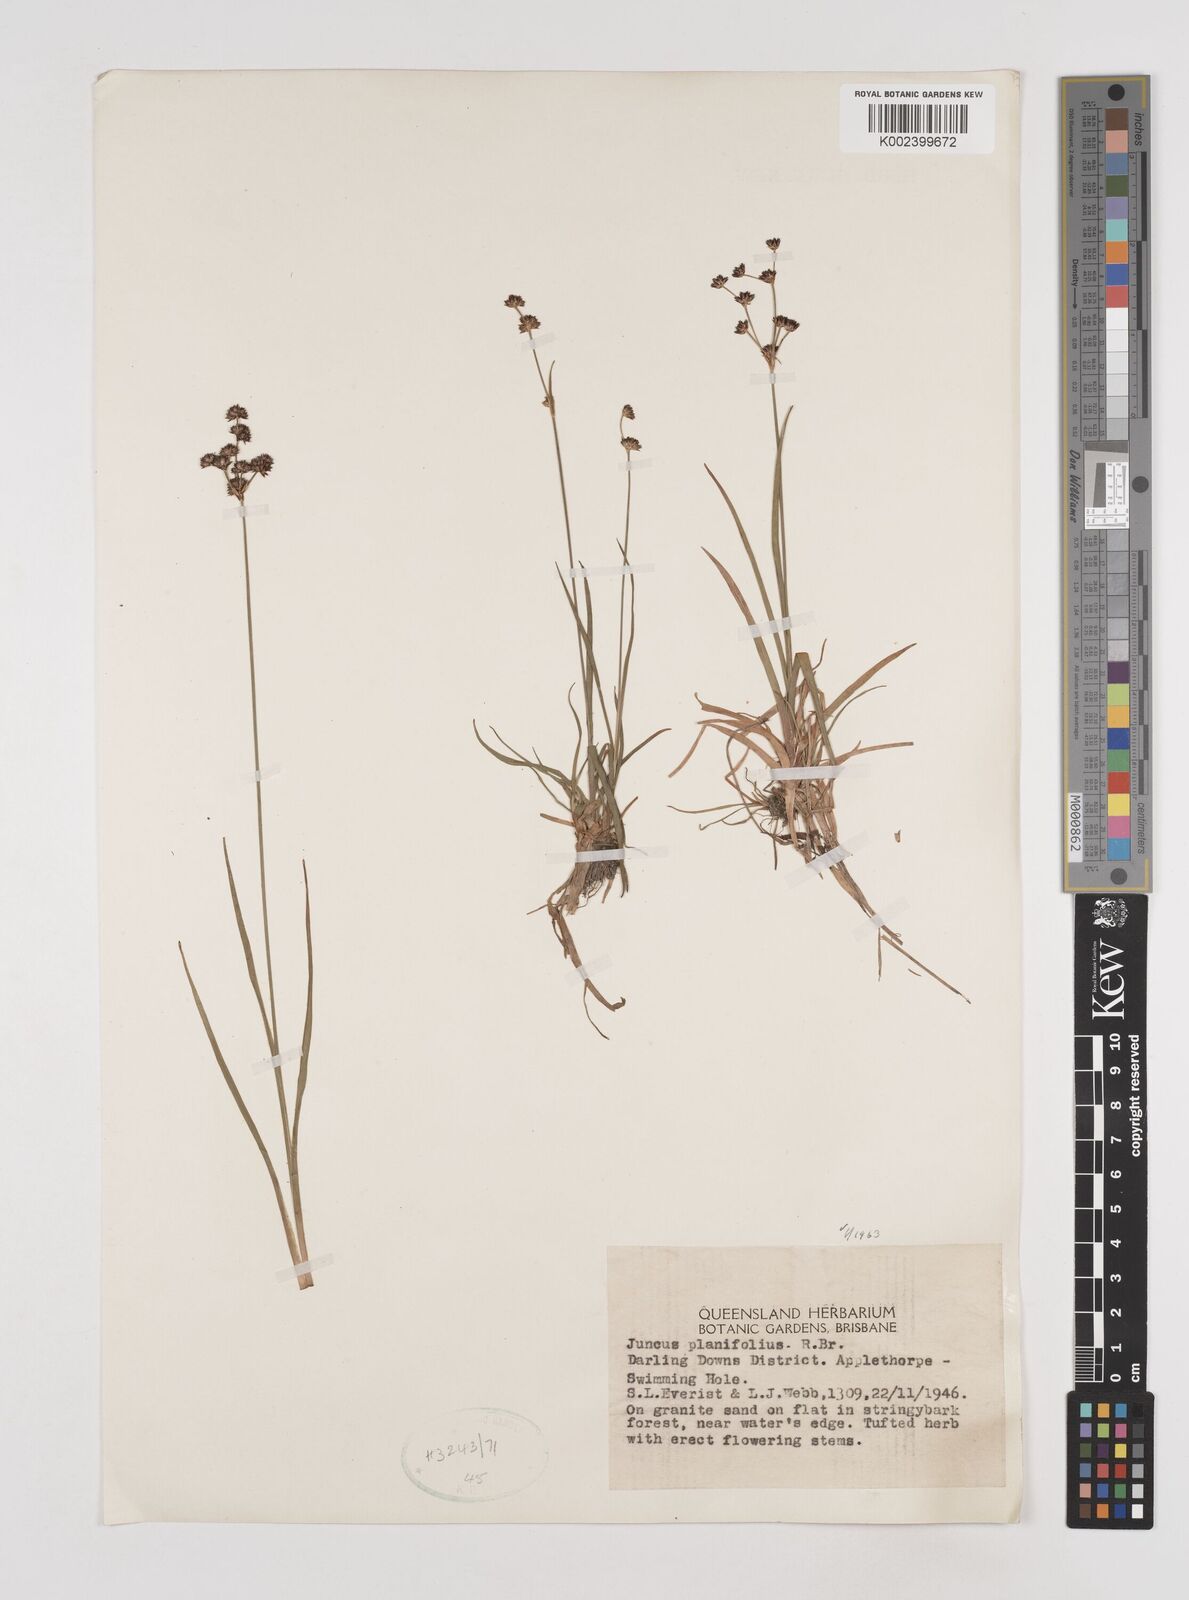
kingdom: Plantae
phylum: Tracheophyta
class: Liliopsida
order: Poales
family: Juncaceae
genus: Juncus
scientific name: Juncus planifolius
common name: Broadleaf rush
